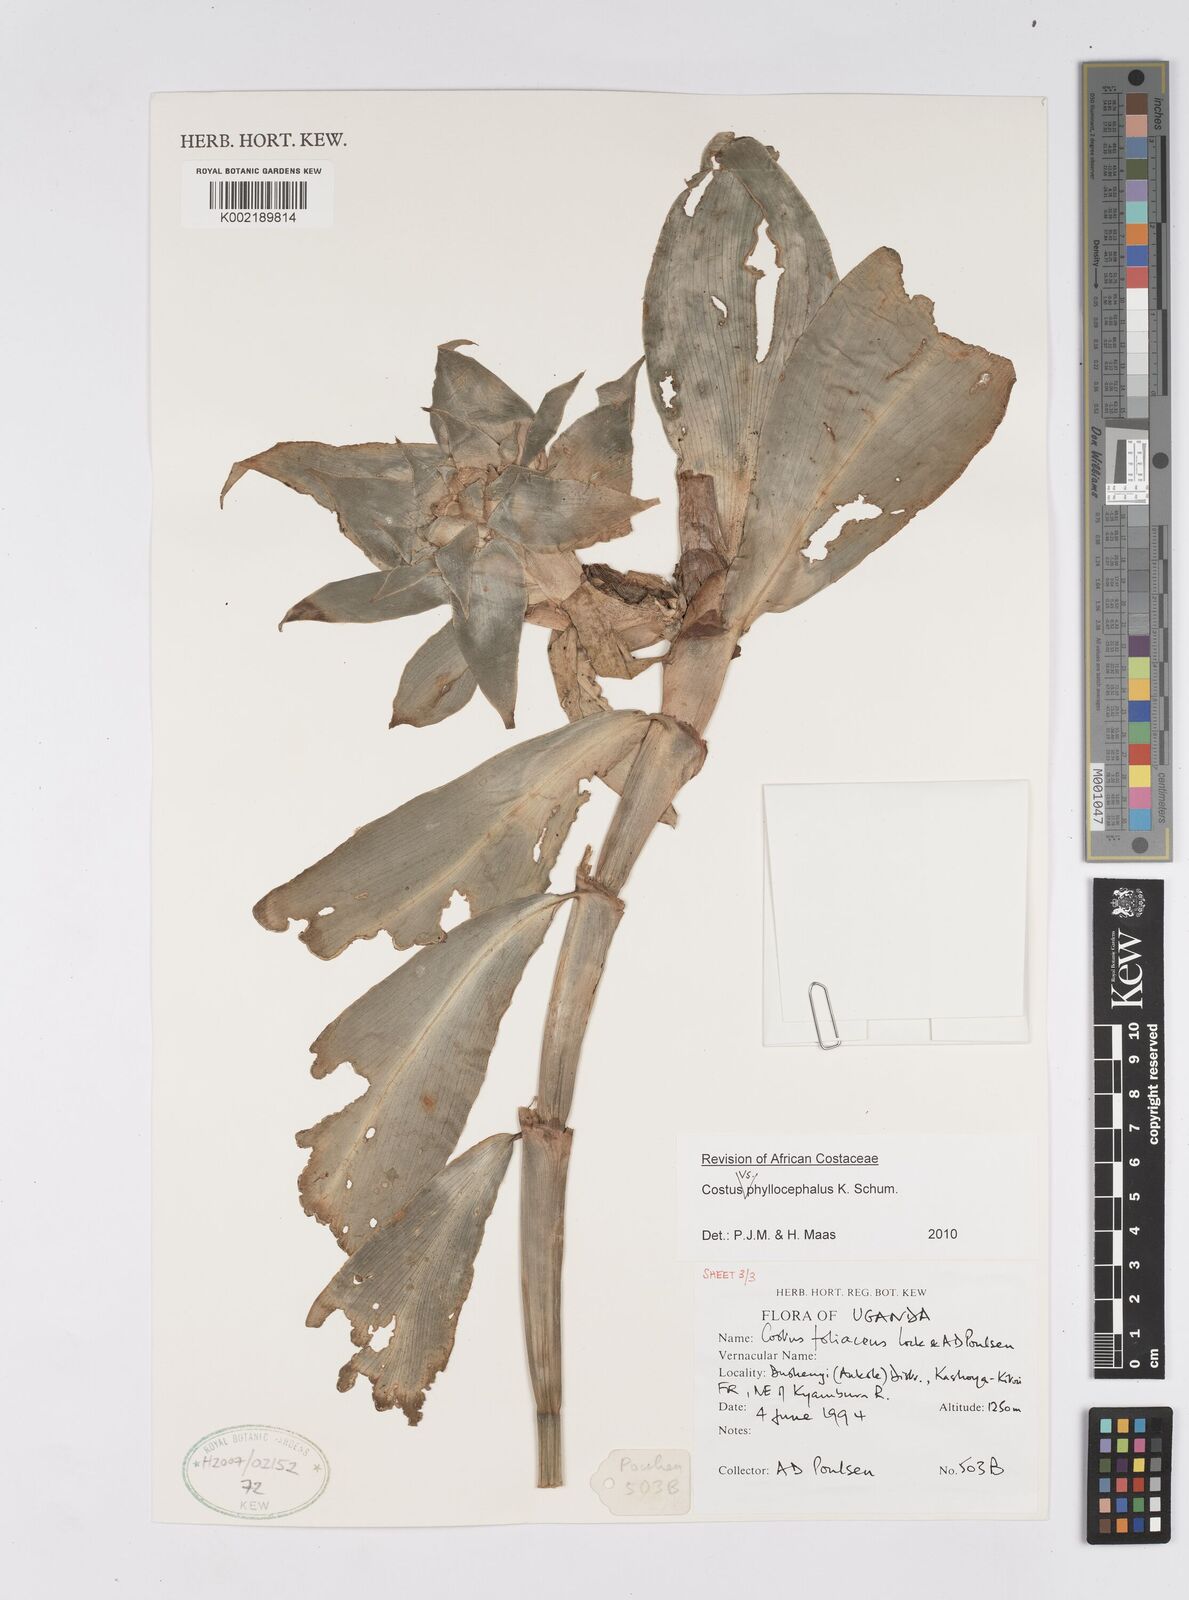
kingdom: Plantae
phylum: Tracheophyta
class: Liliopsida
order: Zingiberales
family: Costaceae
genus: Costus
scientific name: Costus phyllocephalus
